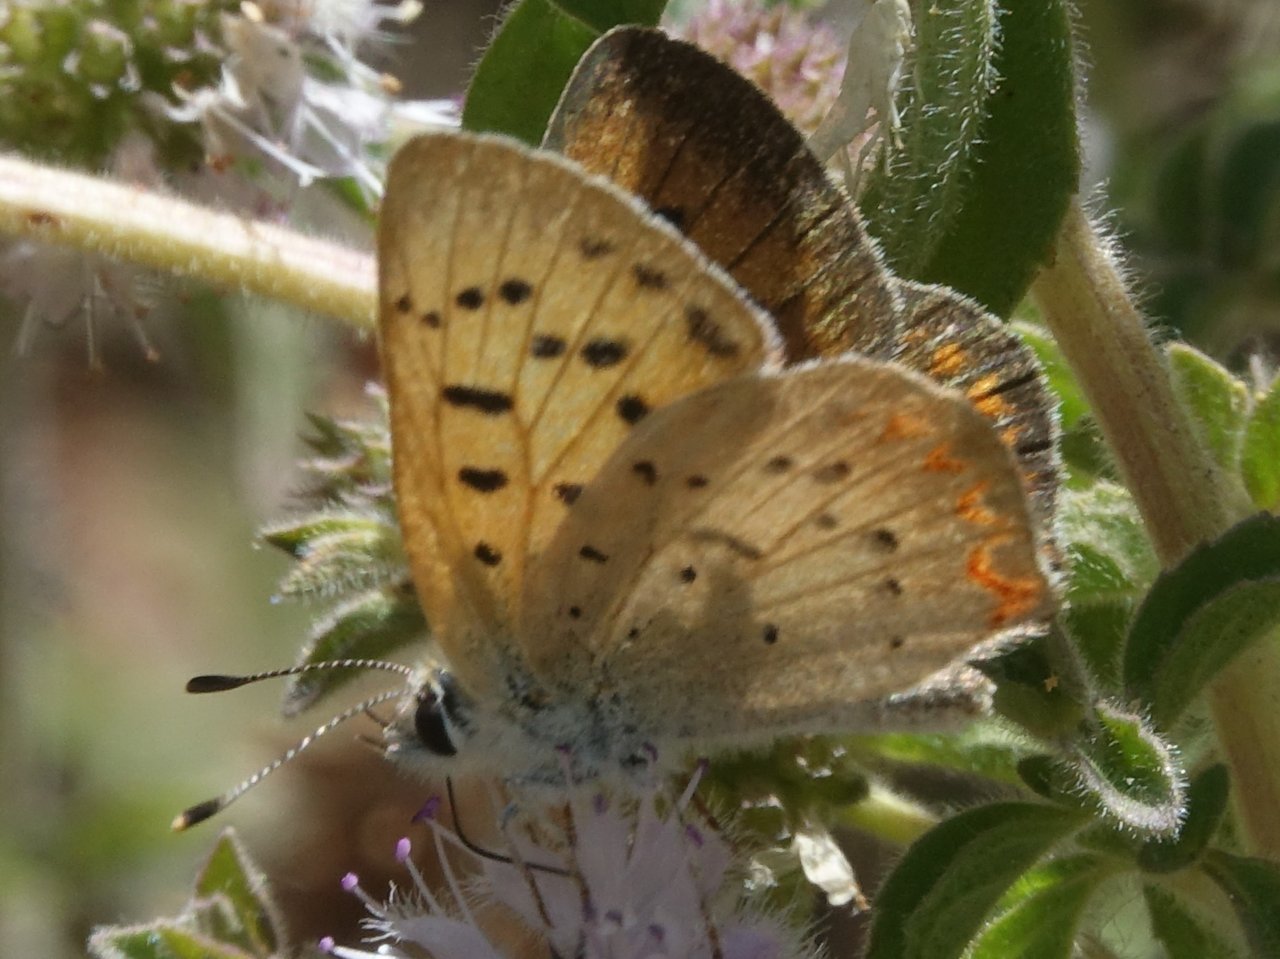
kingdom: Animalia
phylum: Arthropoda
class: Insecta
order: Lepidoptera
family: Sesiidae
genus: Sesia
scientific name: Sesia Lycaena helloides
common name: Purplish Copper
